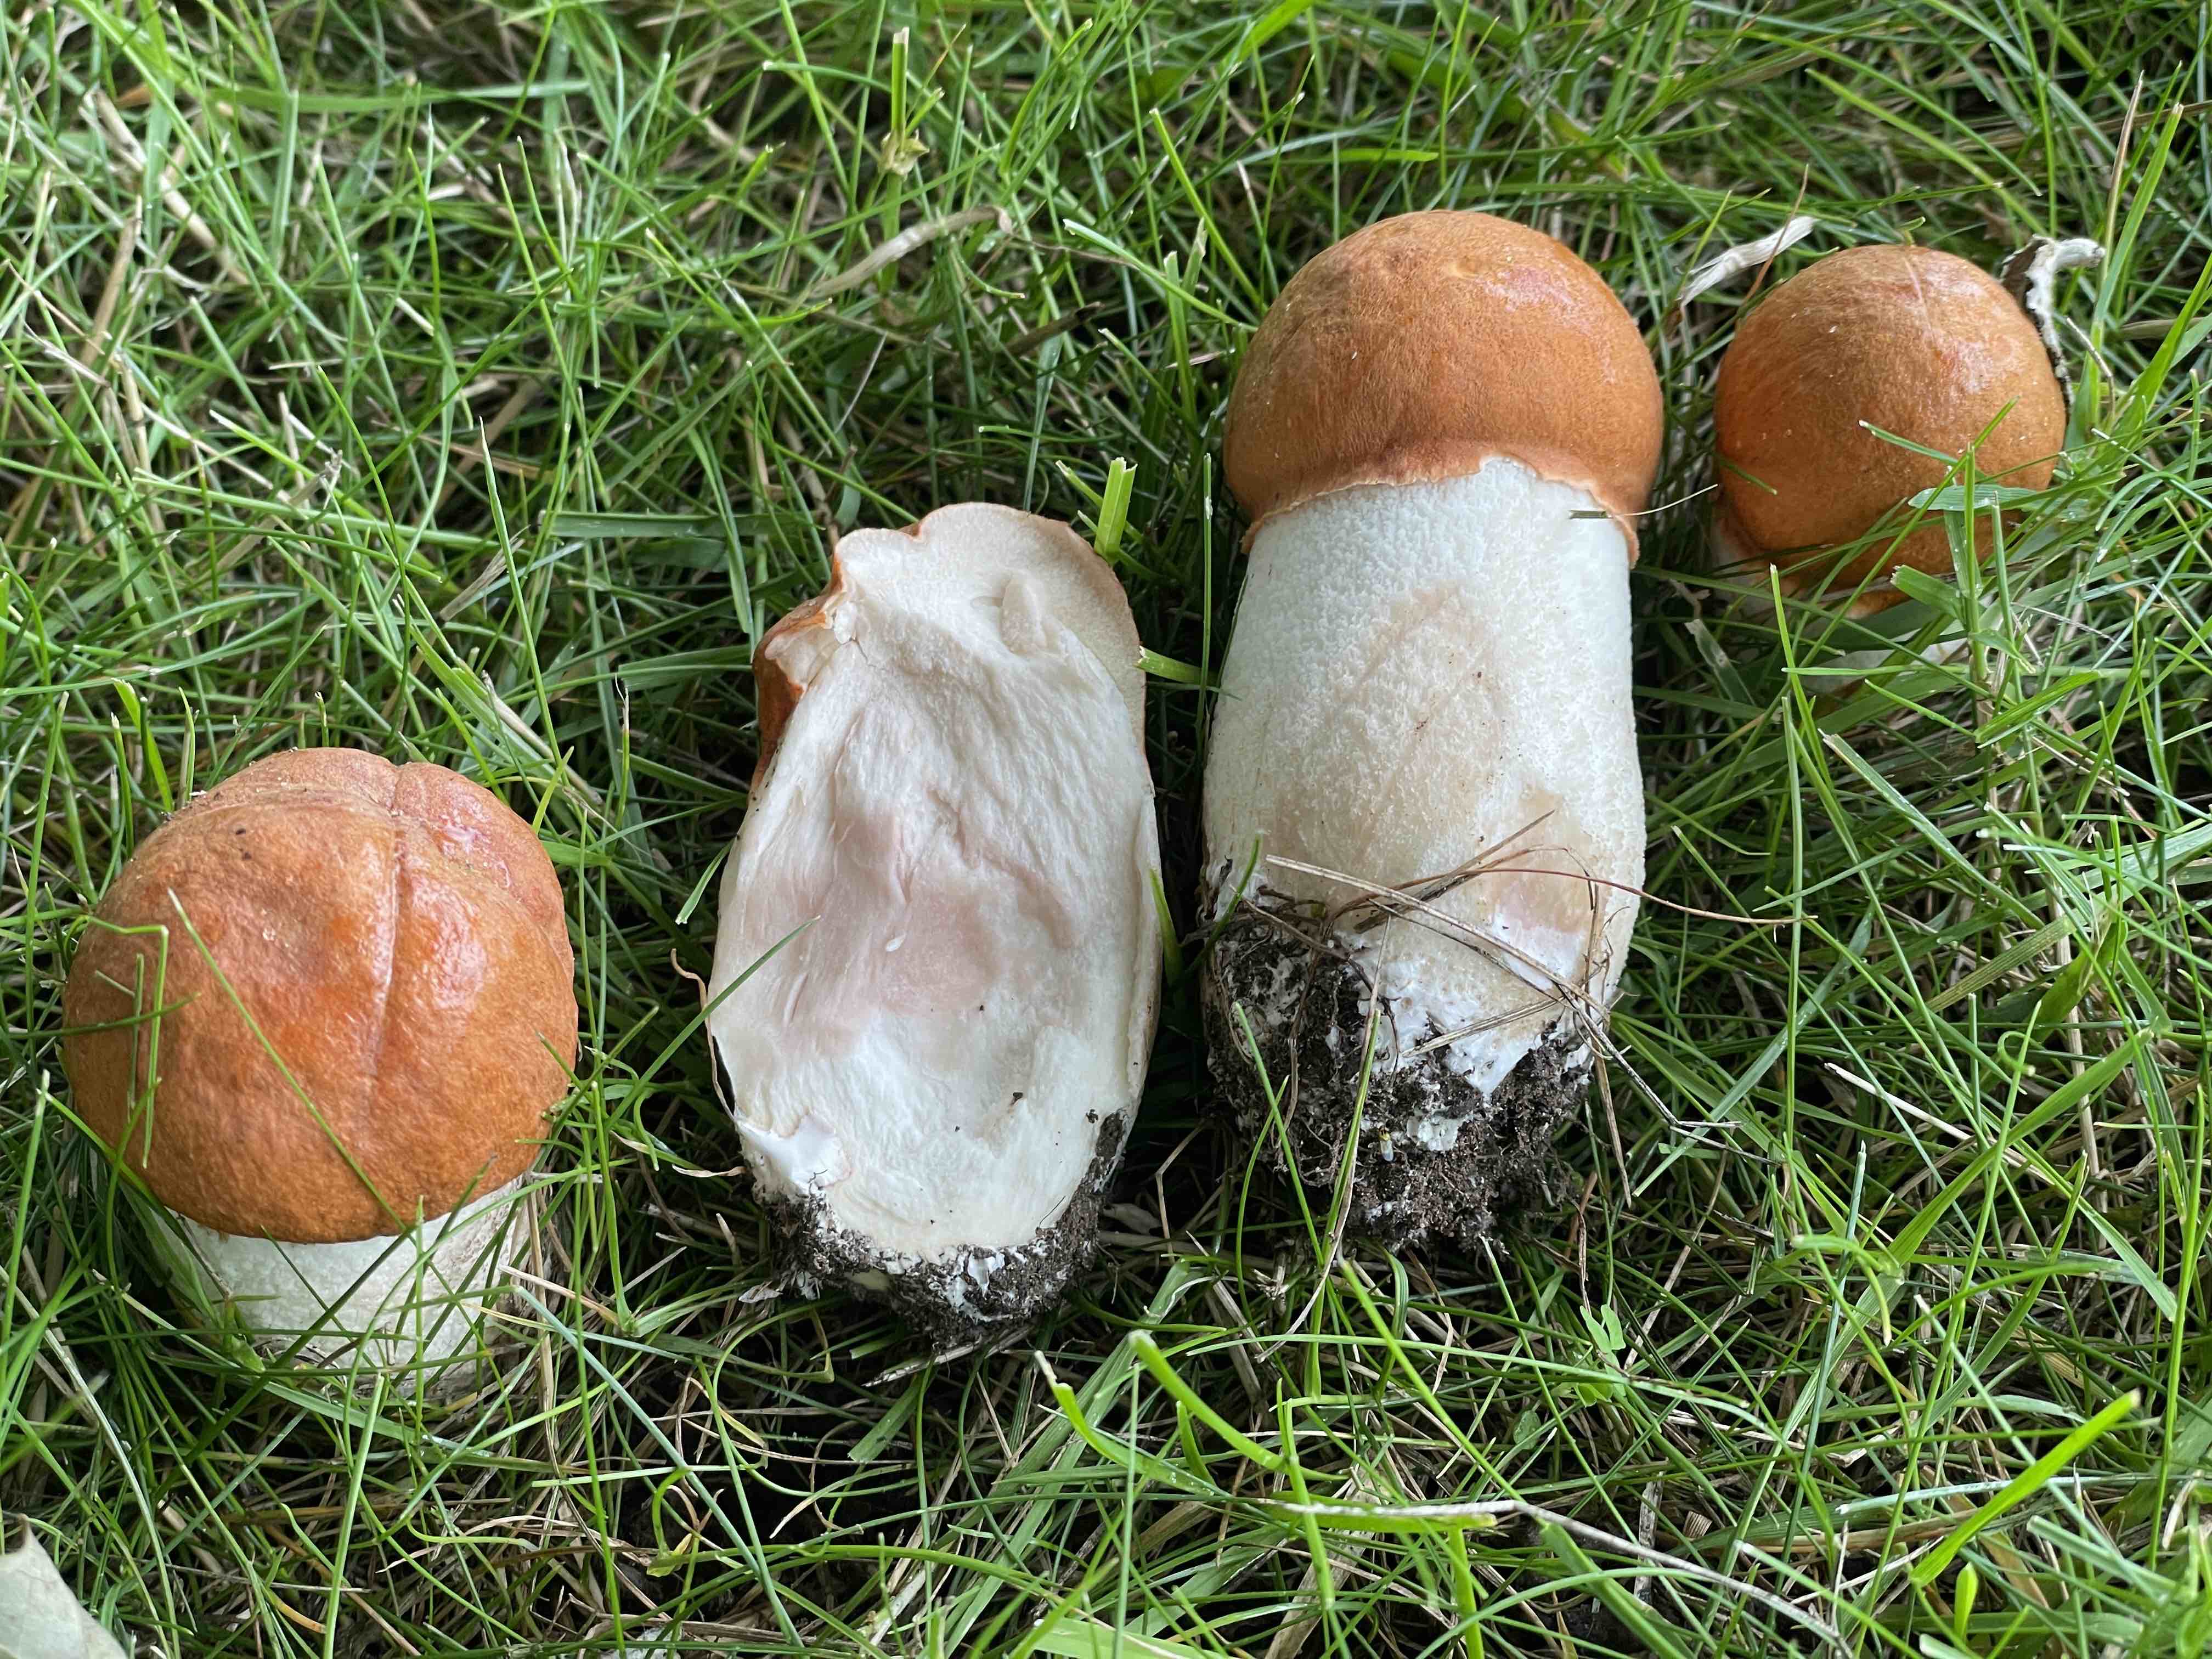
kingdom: Fungi
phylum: Basidiomycota
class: Agaricomycetes
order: Boletales
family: Boletaceae
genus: Leccinum
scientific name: Leccinum albostipitatum
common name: aspe-skælrørhat
